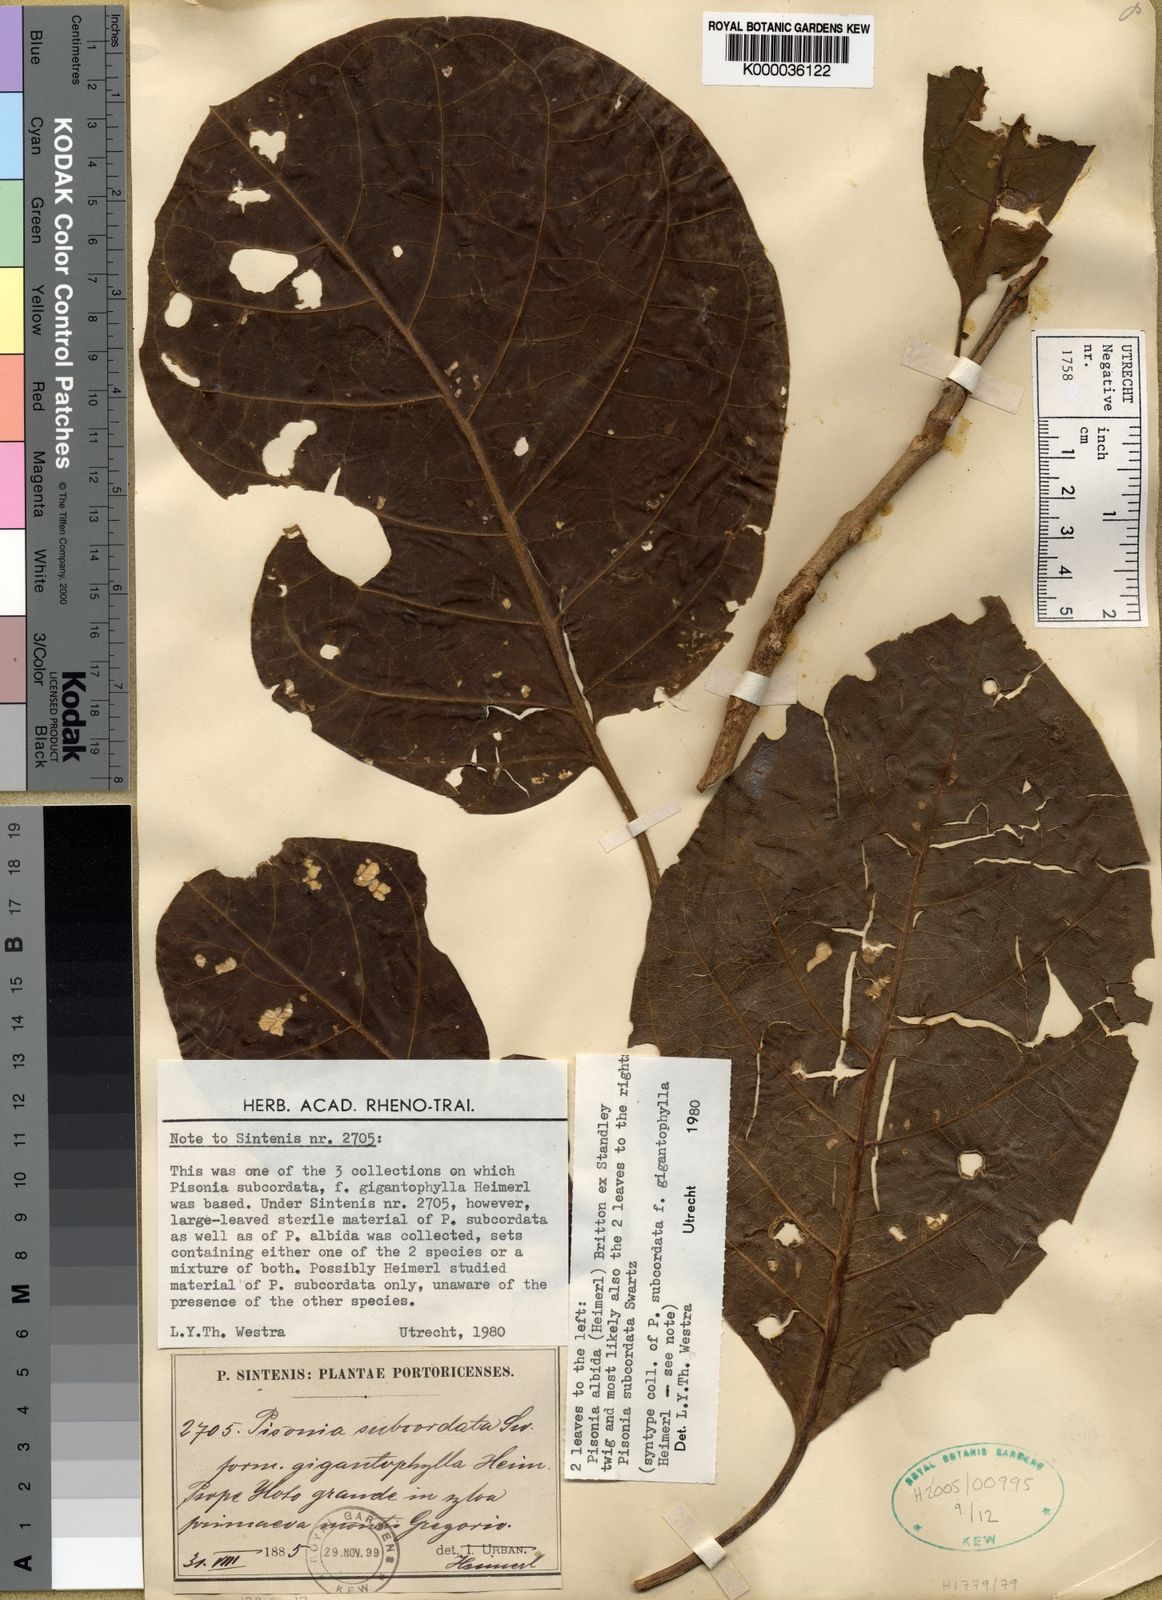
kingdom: Plantae
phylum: Tracheophyta
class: Magnoliopsida
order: Caryophyllales
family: Nyctaginaceae
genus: Pisonia
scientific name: Pisonia subcordata
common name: Mampoo
